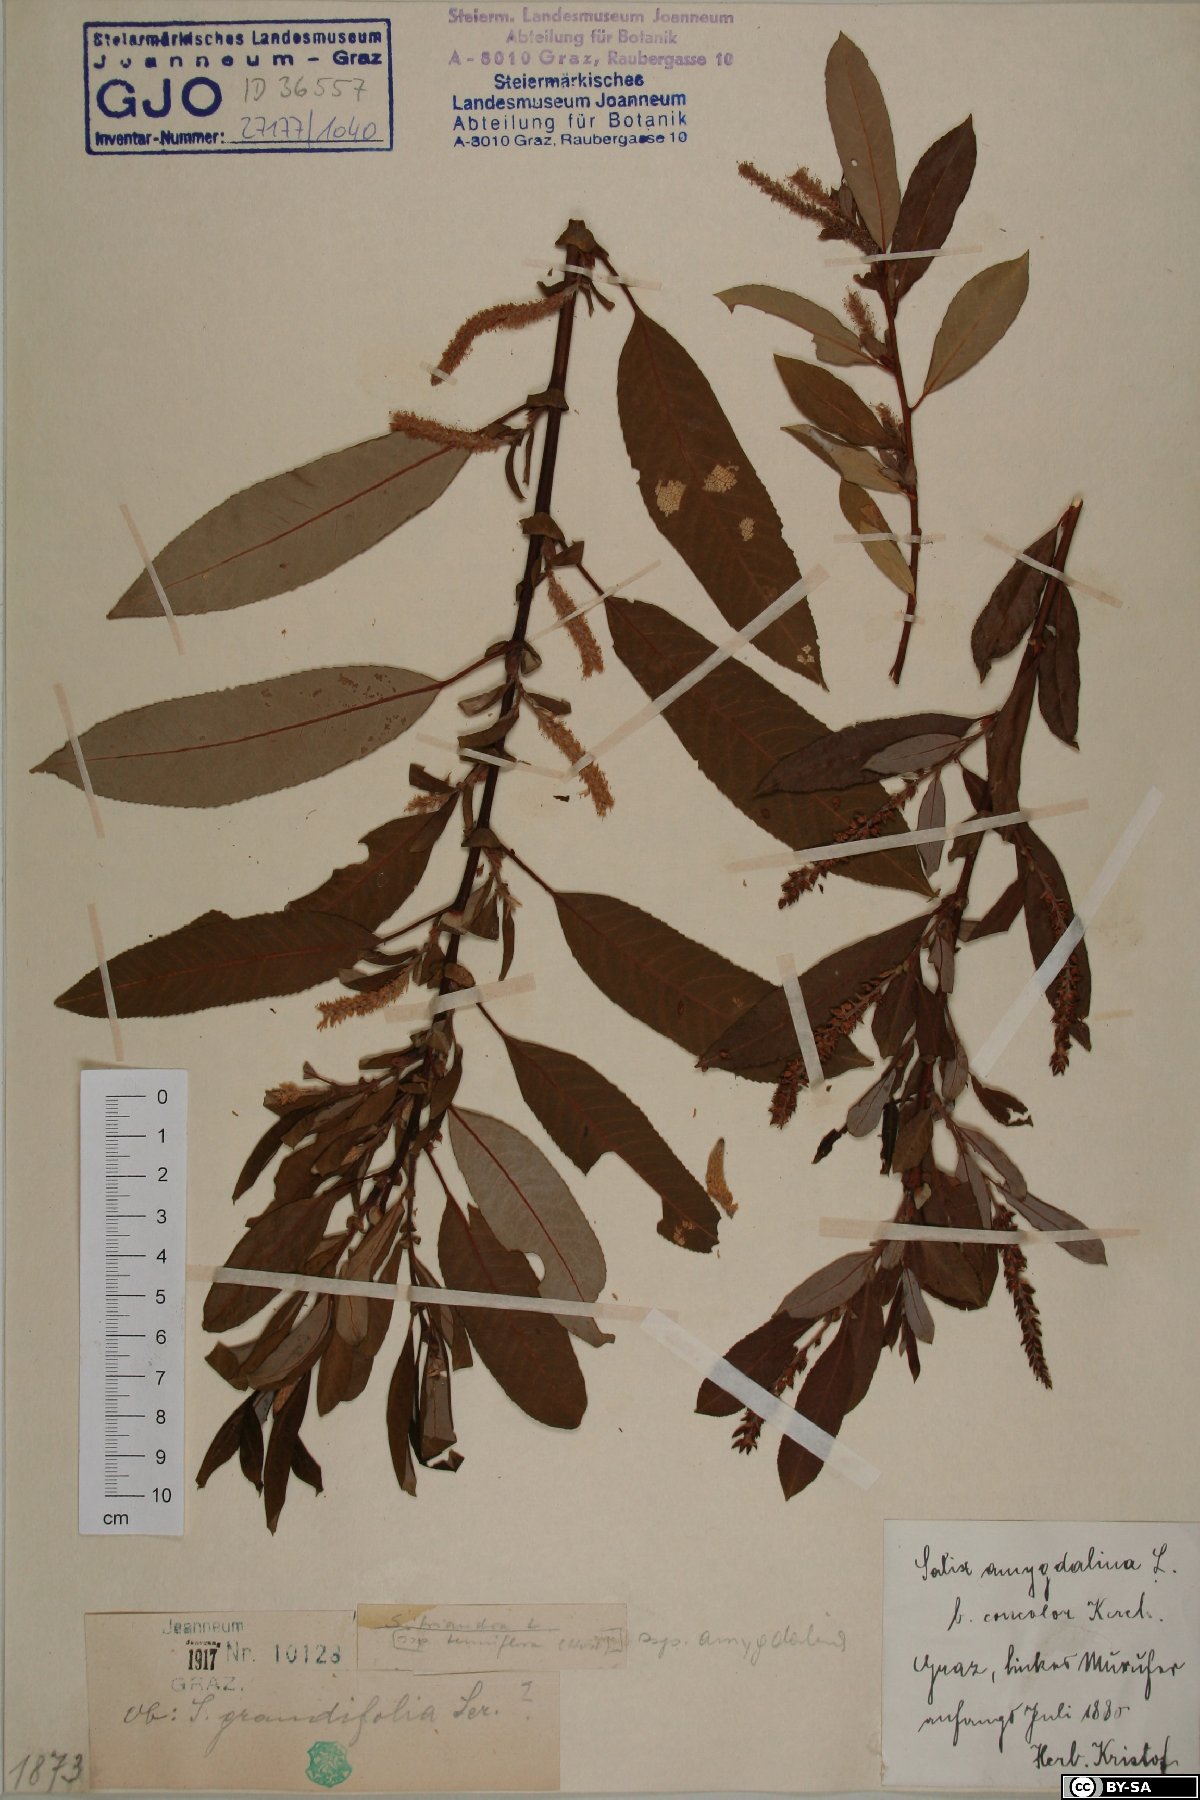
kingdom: Plantae
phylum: Tracheophyta
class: Magnoliopsida
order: Malpighiales
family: Salicaceae
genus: Salix
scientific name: Salix triandra
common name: Almond willow
